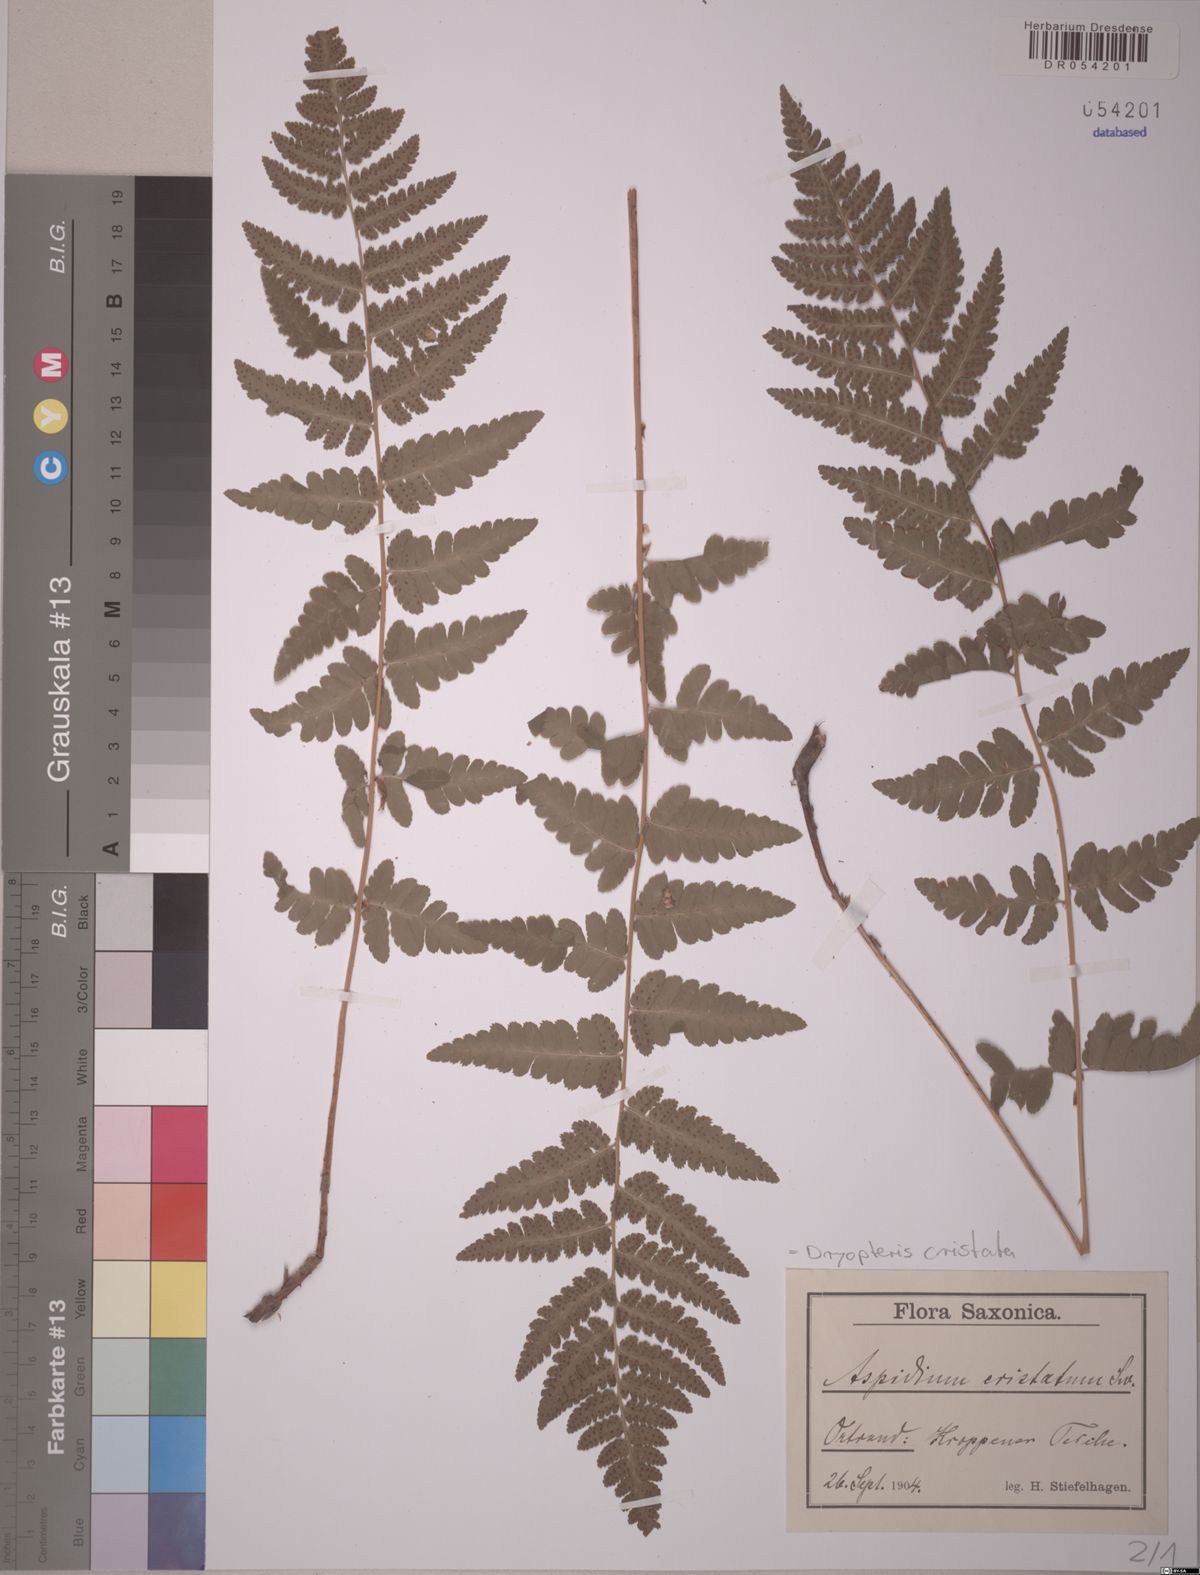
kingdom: Plantae
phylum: Tracheophyta
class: Polypodiopsida
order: Polypodiales
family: Dryopteridaceae
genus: Dryopteris
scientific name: Dryopteris cristata
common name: Crested wood fern
